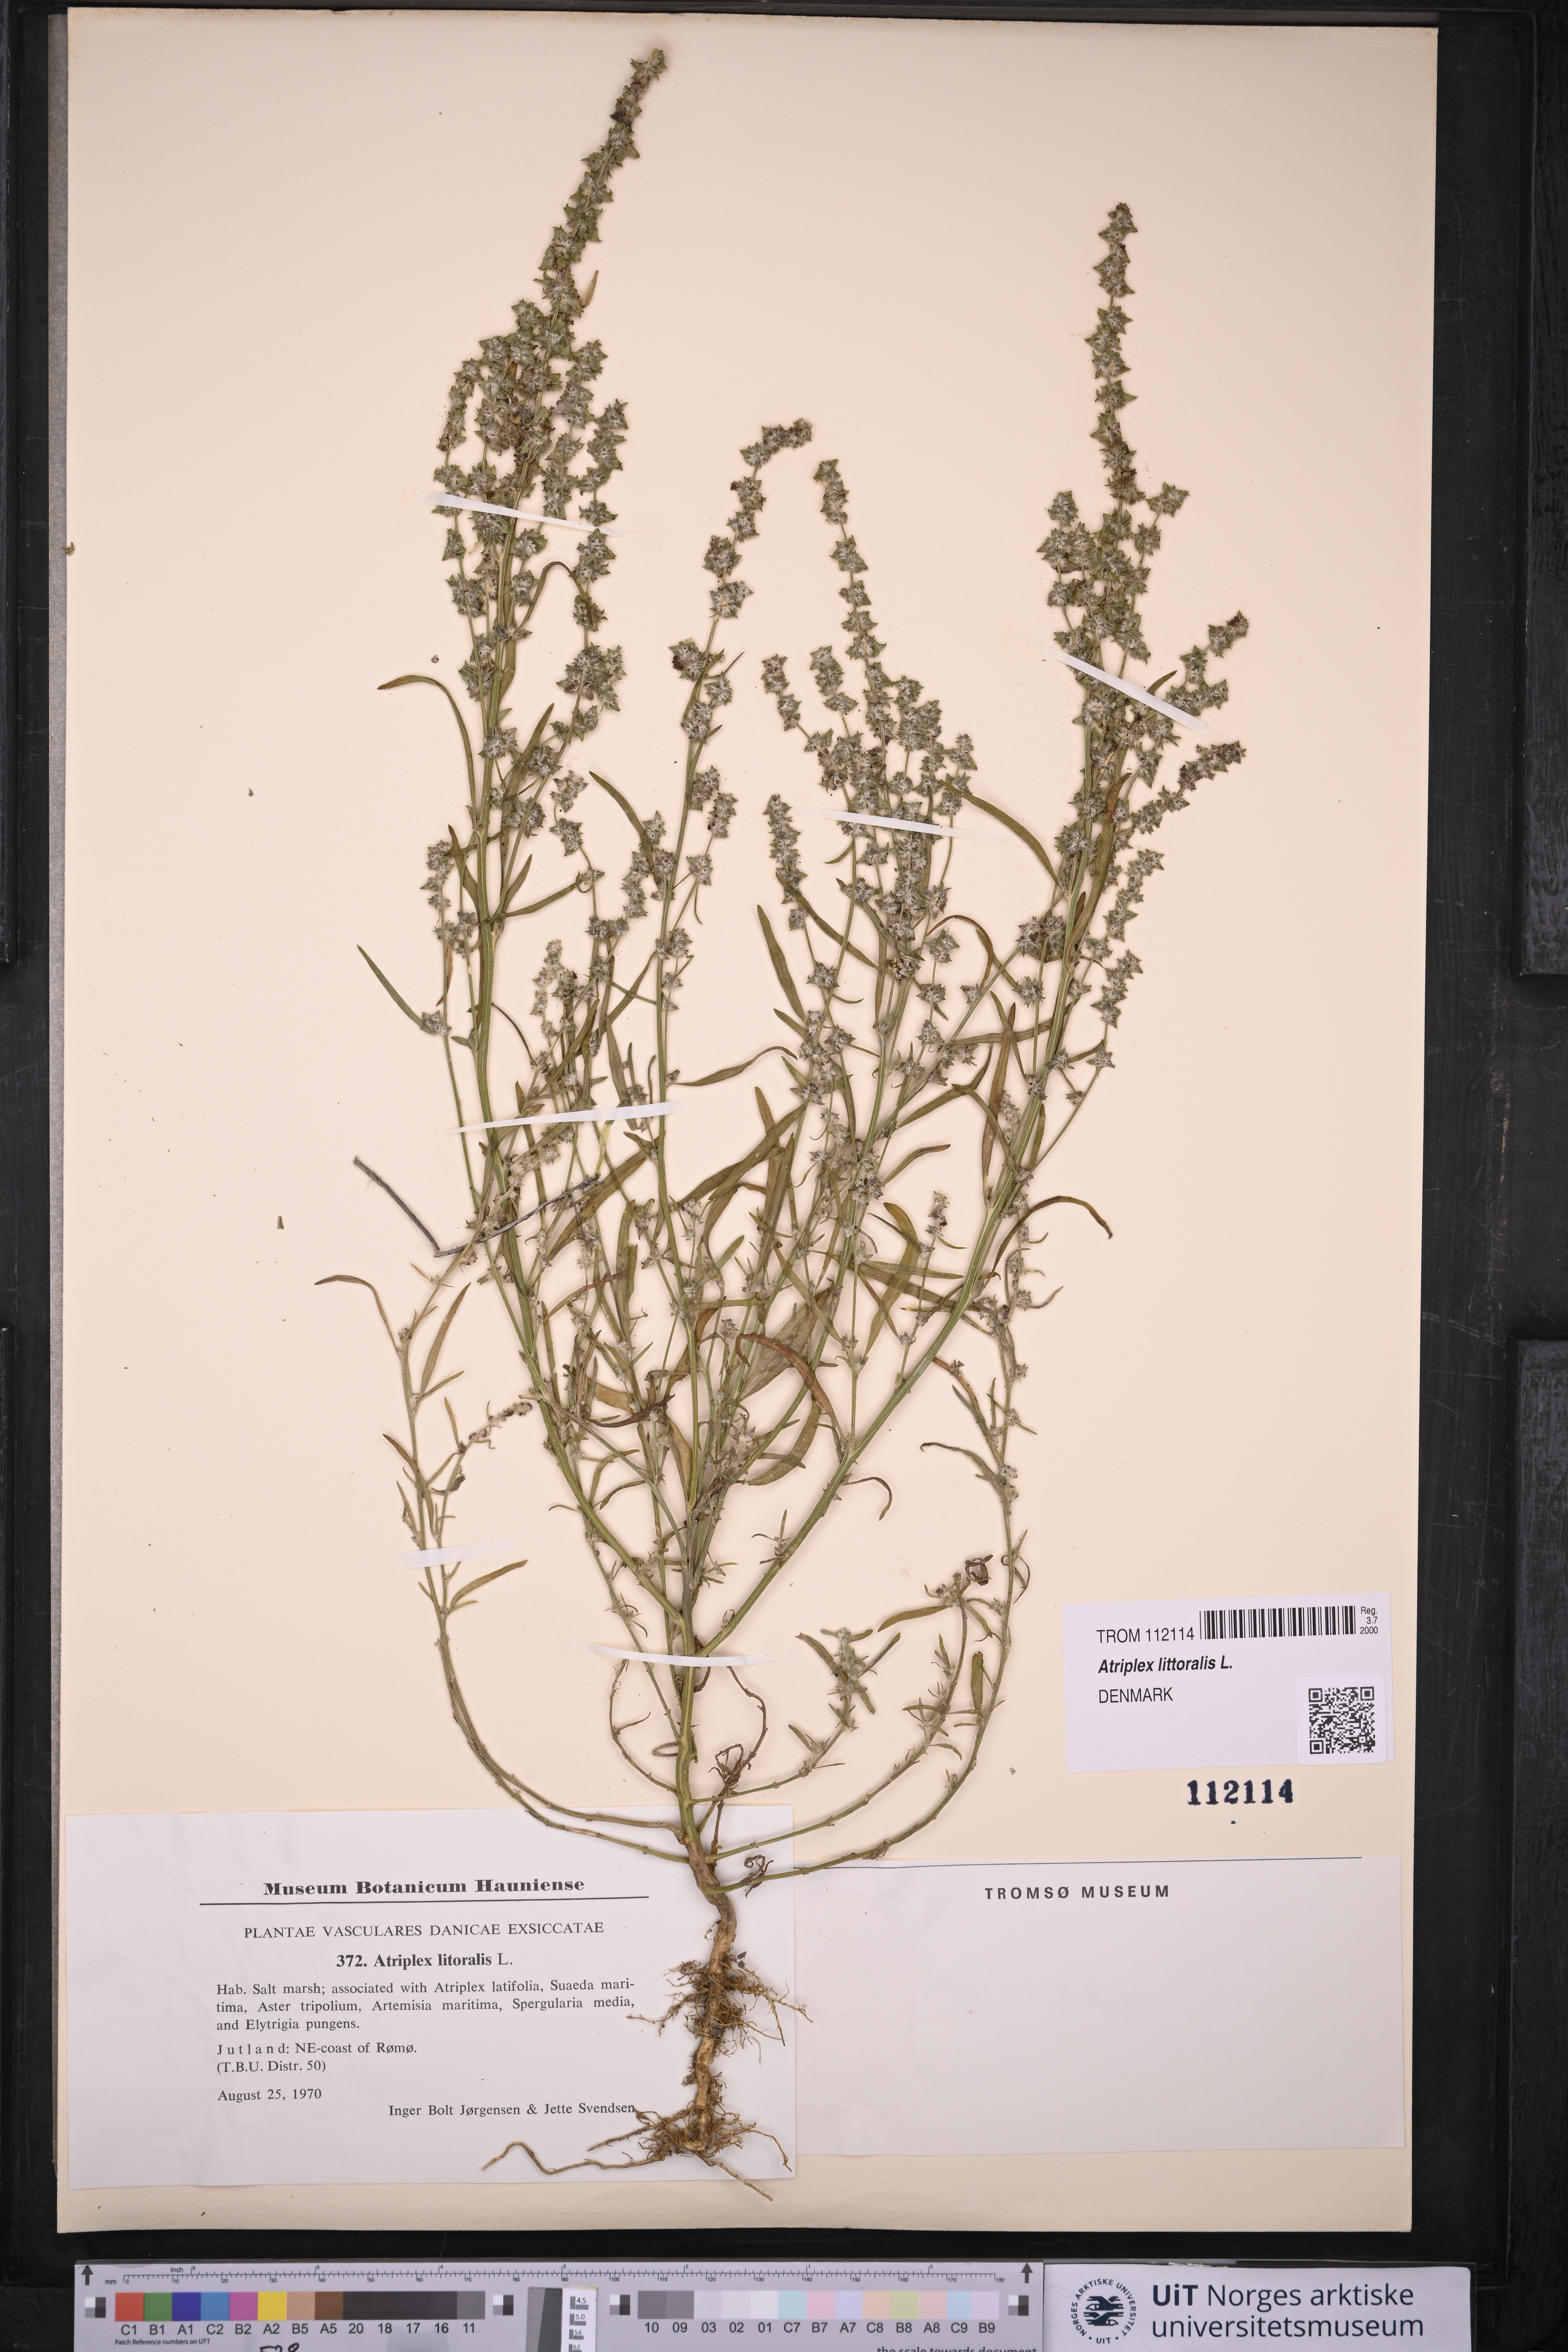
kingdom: Plantae
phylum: Tracheophyta
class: Magnoliopsida
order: Caryophyllales
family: Amaranthaceae
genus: Atriplex
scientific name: Atriplex littoralis
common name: Grass-leaved orache
